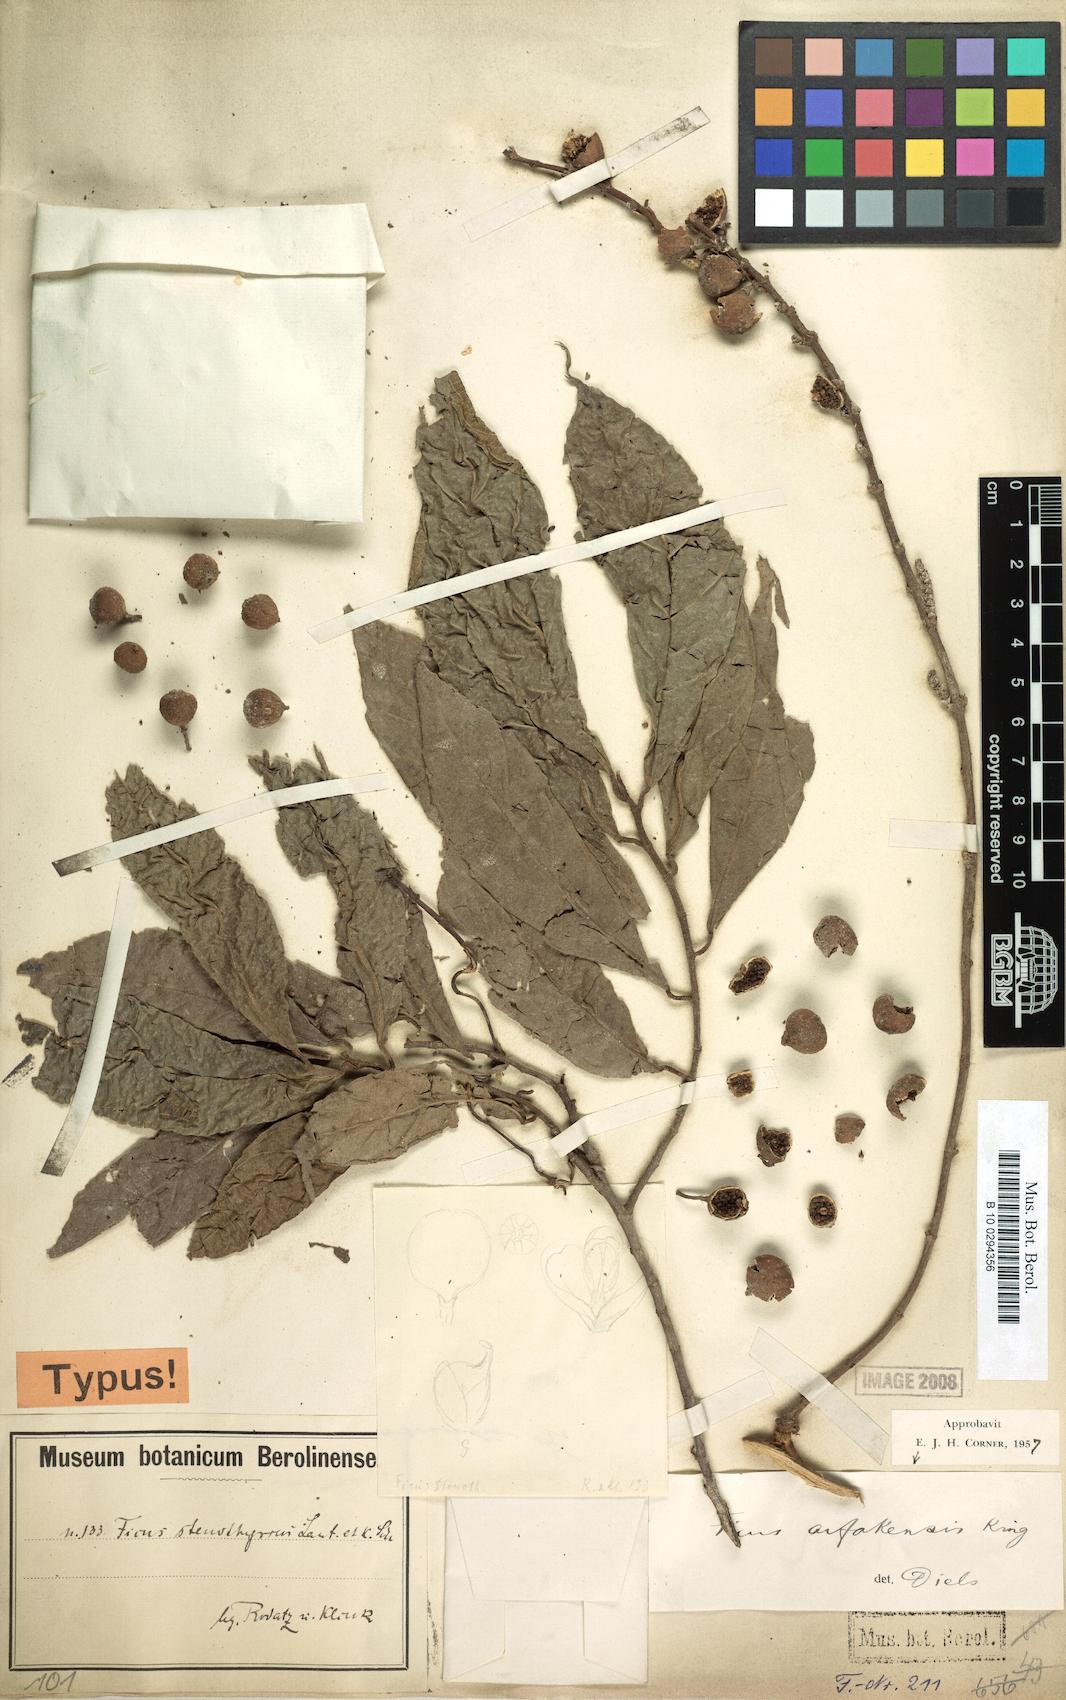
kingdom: Plantae
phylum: Tracheophyta
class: Magnoliopsida
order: Rosales
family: Moraceae
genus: Ficus
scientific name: Ficus ribes
